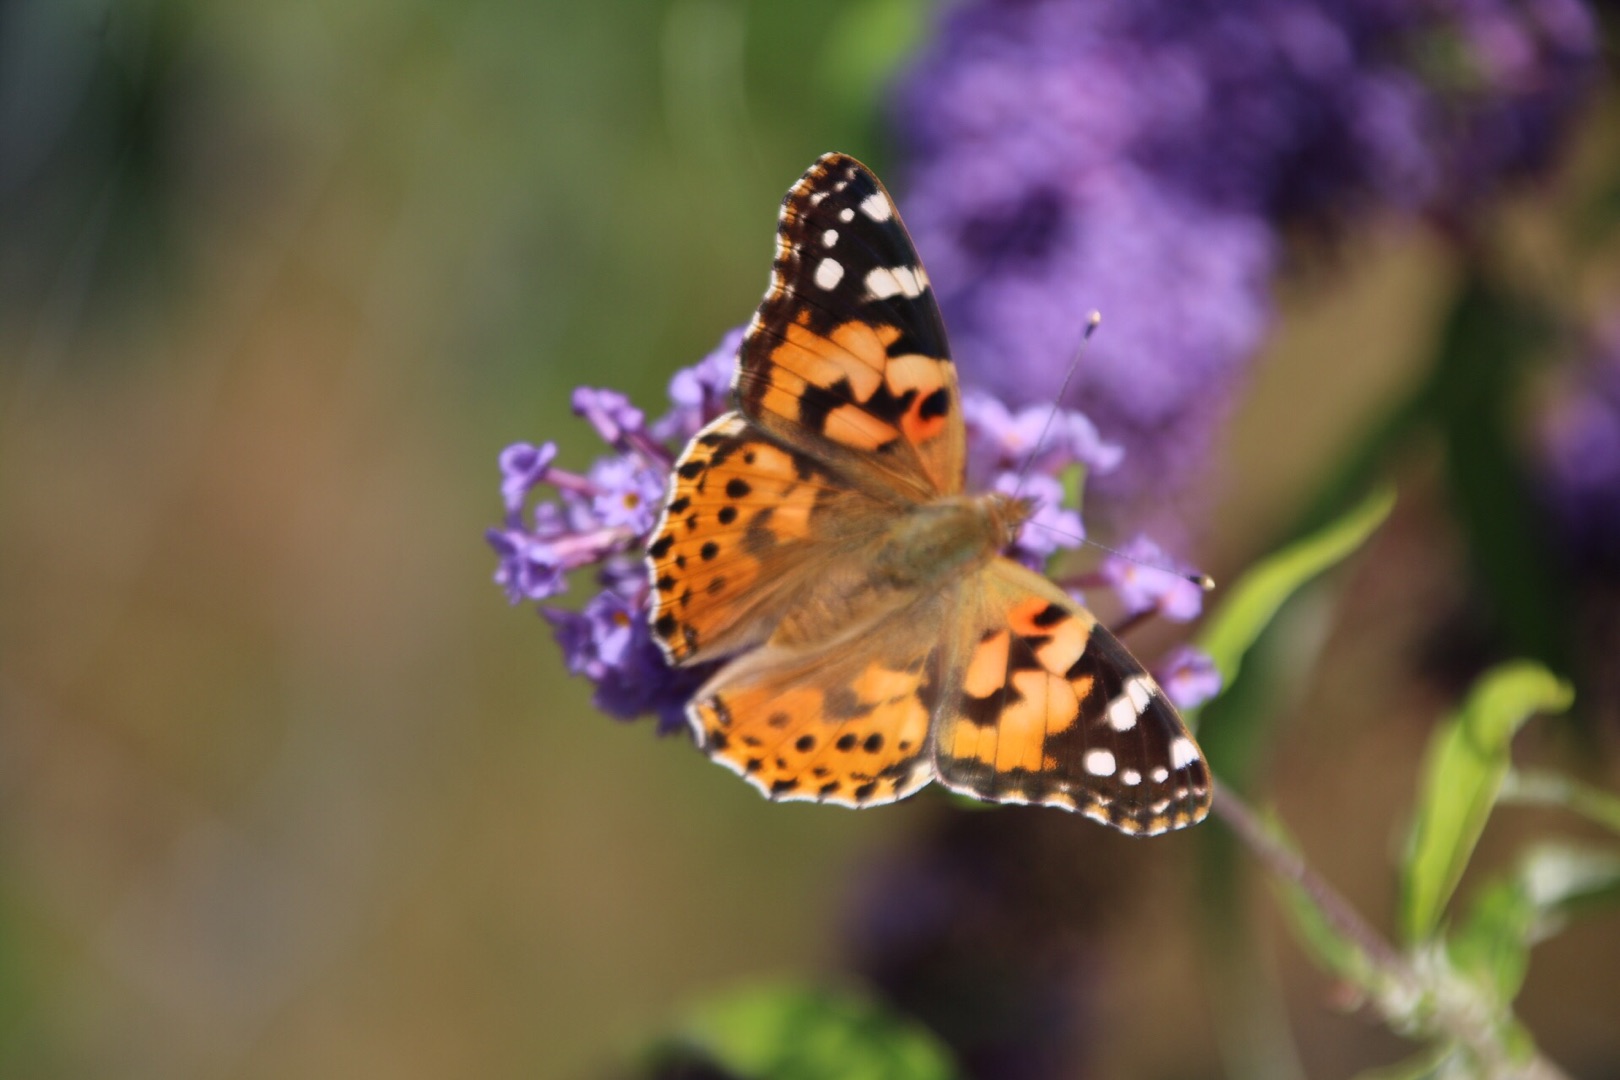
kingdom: Animalia
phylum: Arthropoda
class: Insecta
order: Lepidoptera
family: Nymphalidae
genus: Vanessa
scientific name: Vanessa cardui
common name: Tidselsommerfugl
